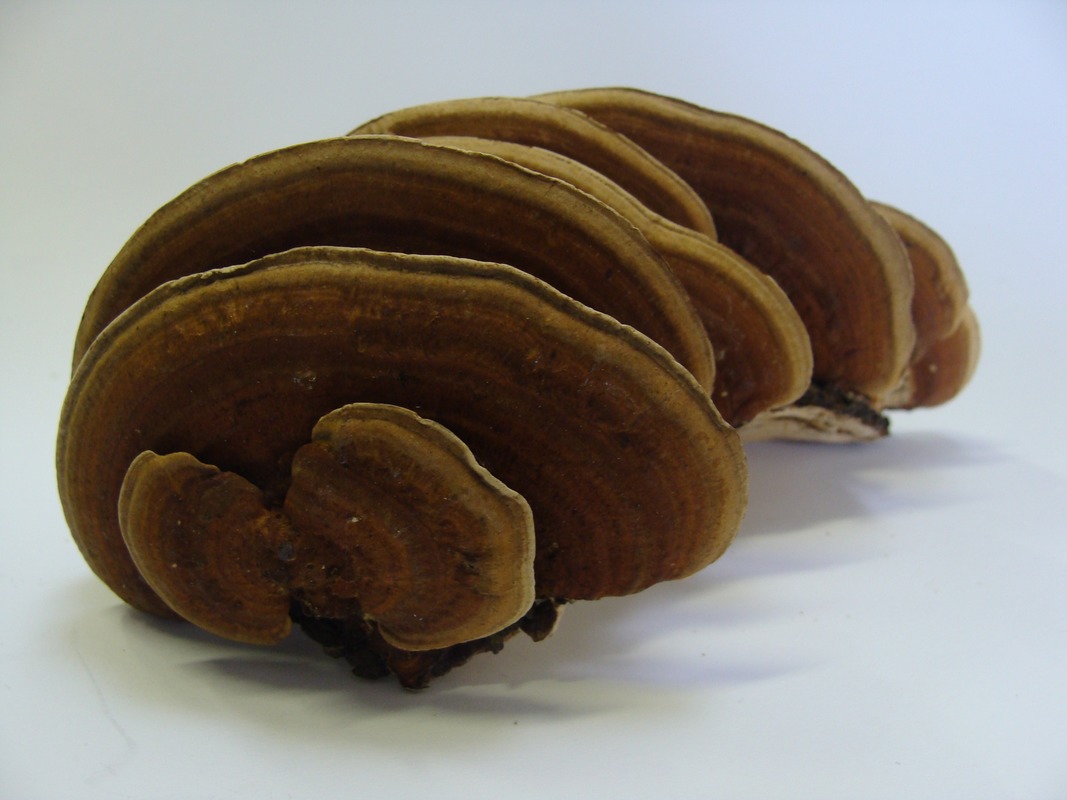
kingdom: Fungi
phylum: Basidiomycota
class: Agaricomycetes
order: Polyporales
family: Polyporaceae
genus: Daedaleopsis
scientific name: Daedaleopsis confragosa
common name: Blushing bracket
